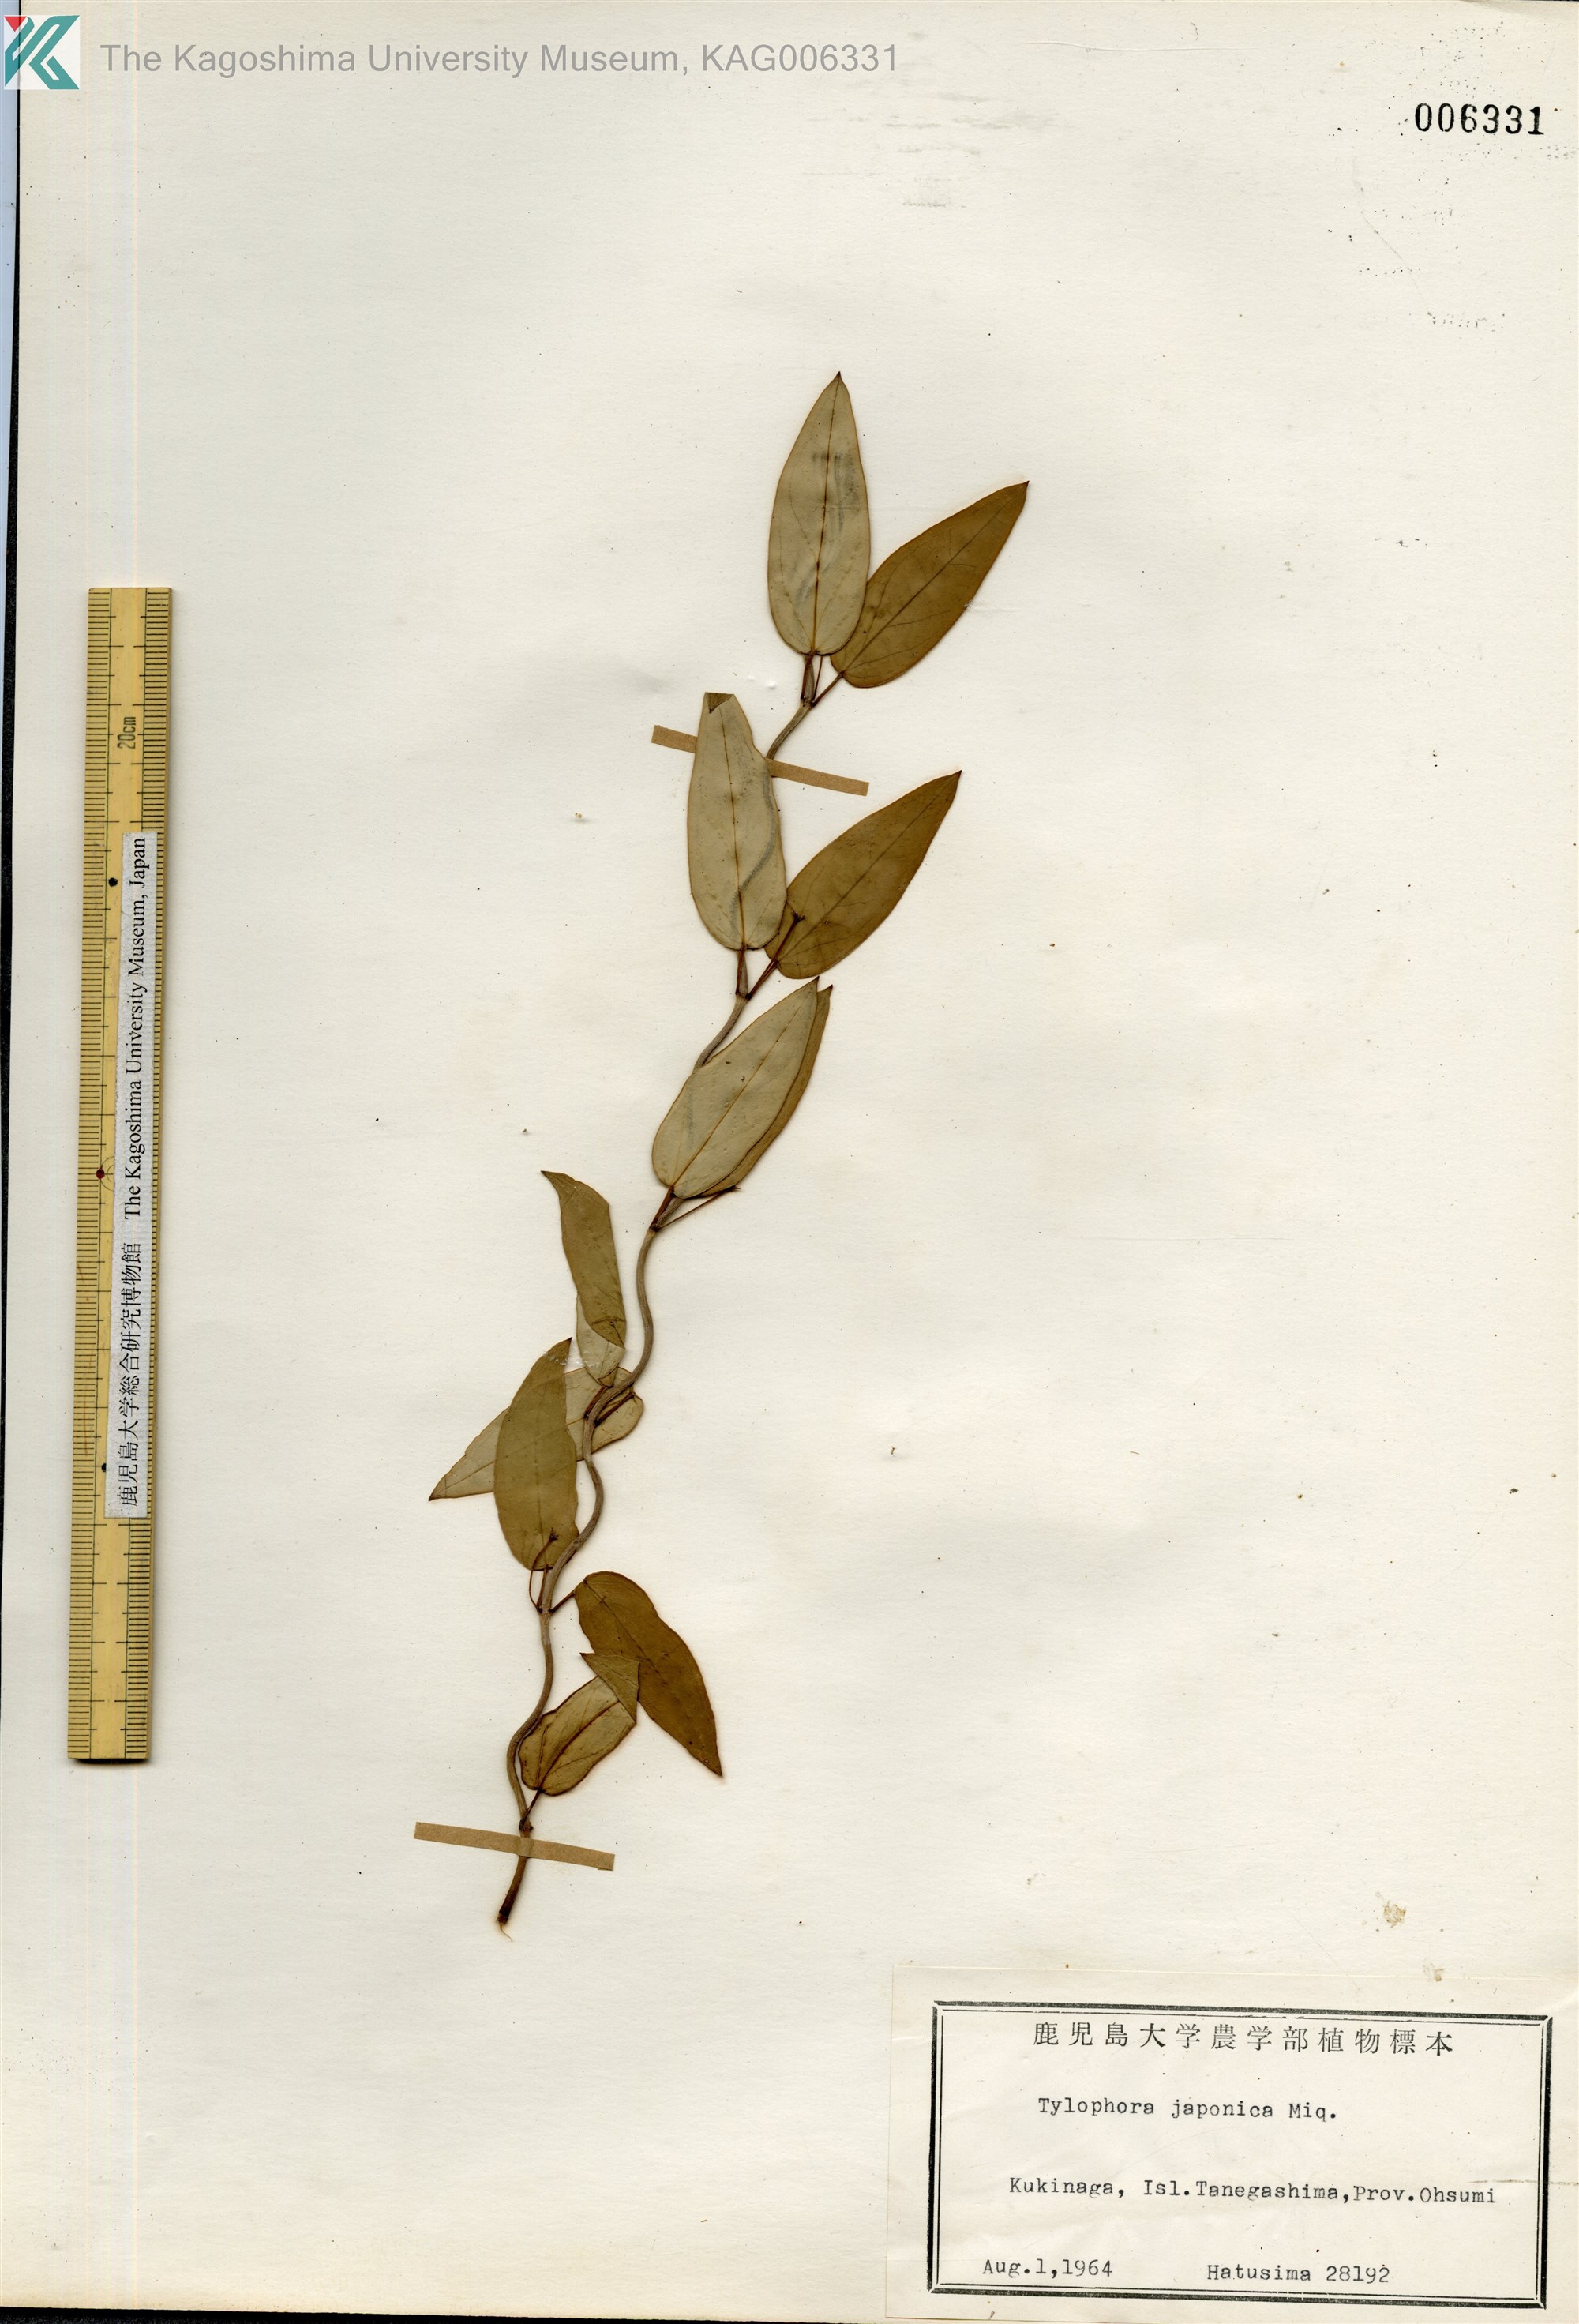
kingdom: Plantae
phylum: Tracheophyta
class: Magnoliopsida
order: Gentianales
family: Apocynaceae
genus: Vincetoxicum
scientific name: Vincetoxicum sieboldii
